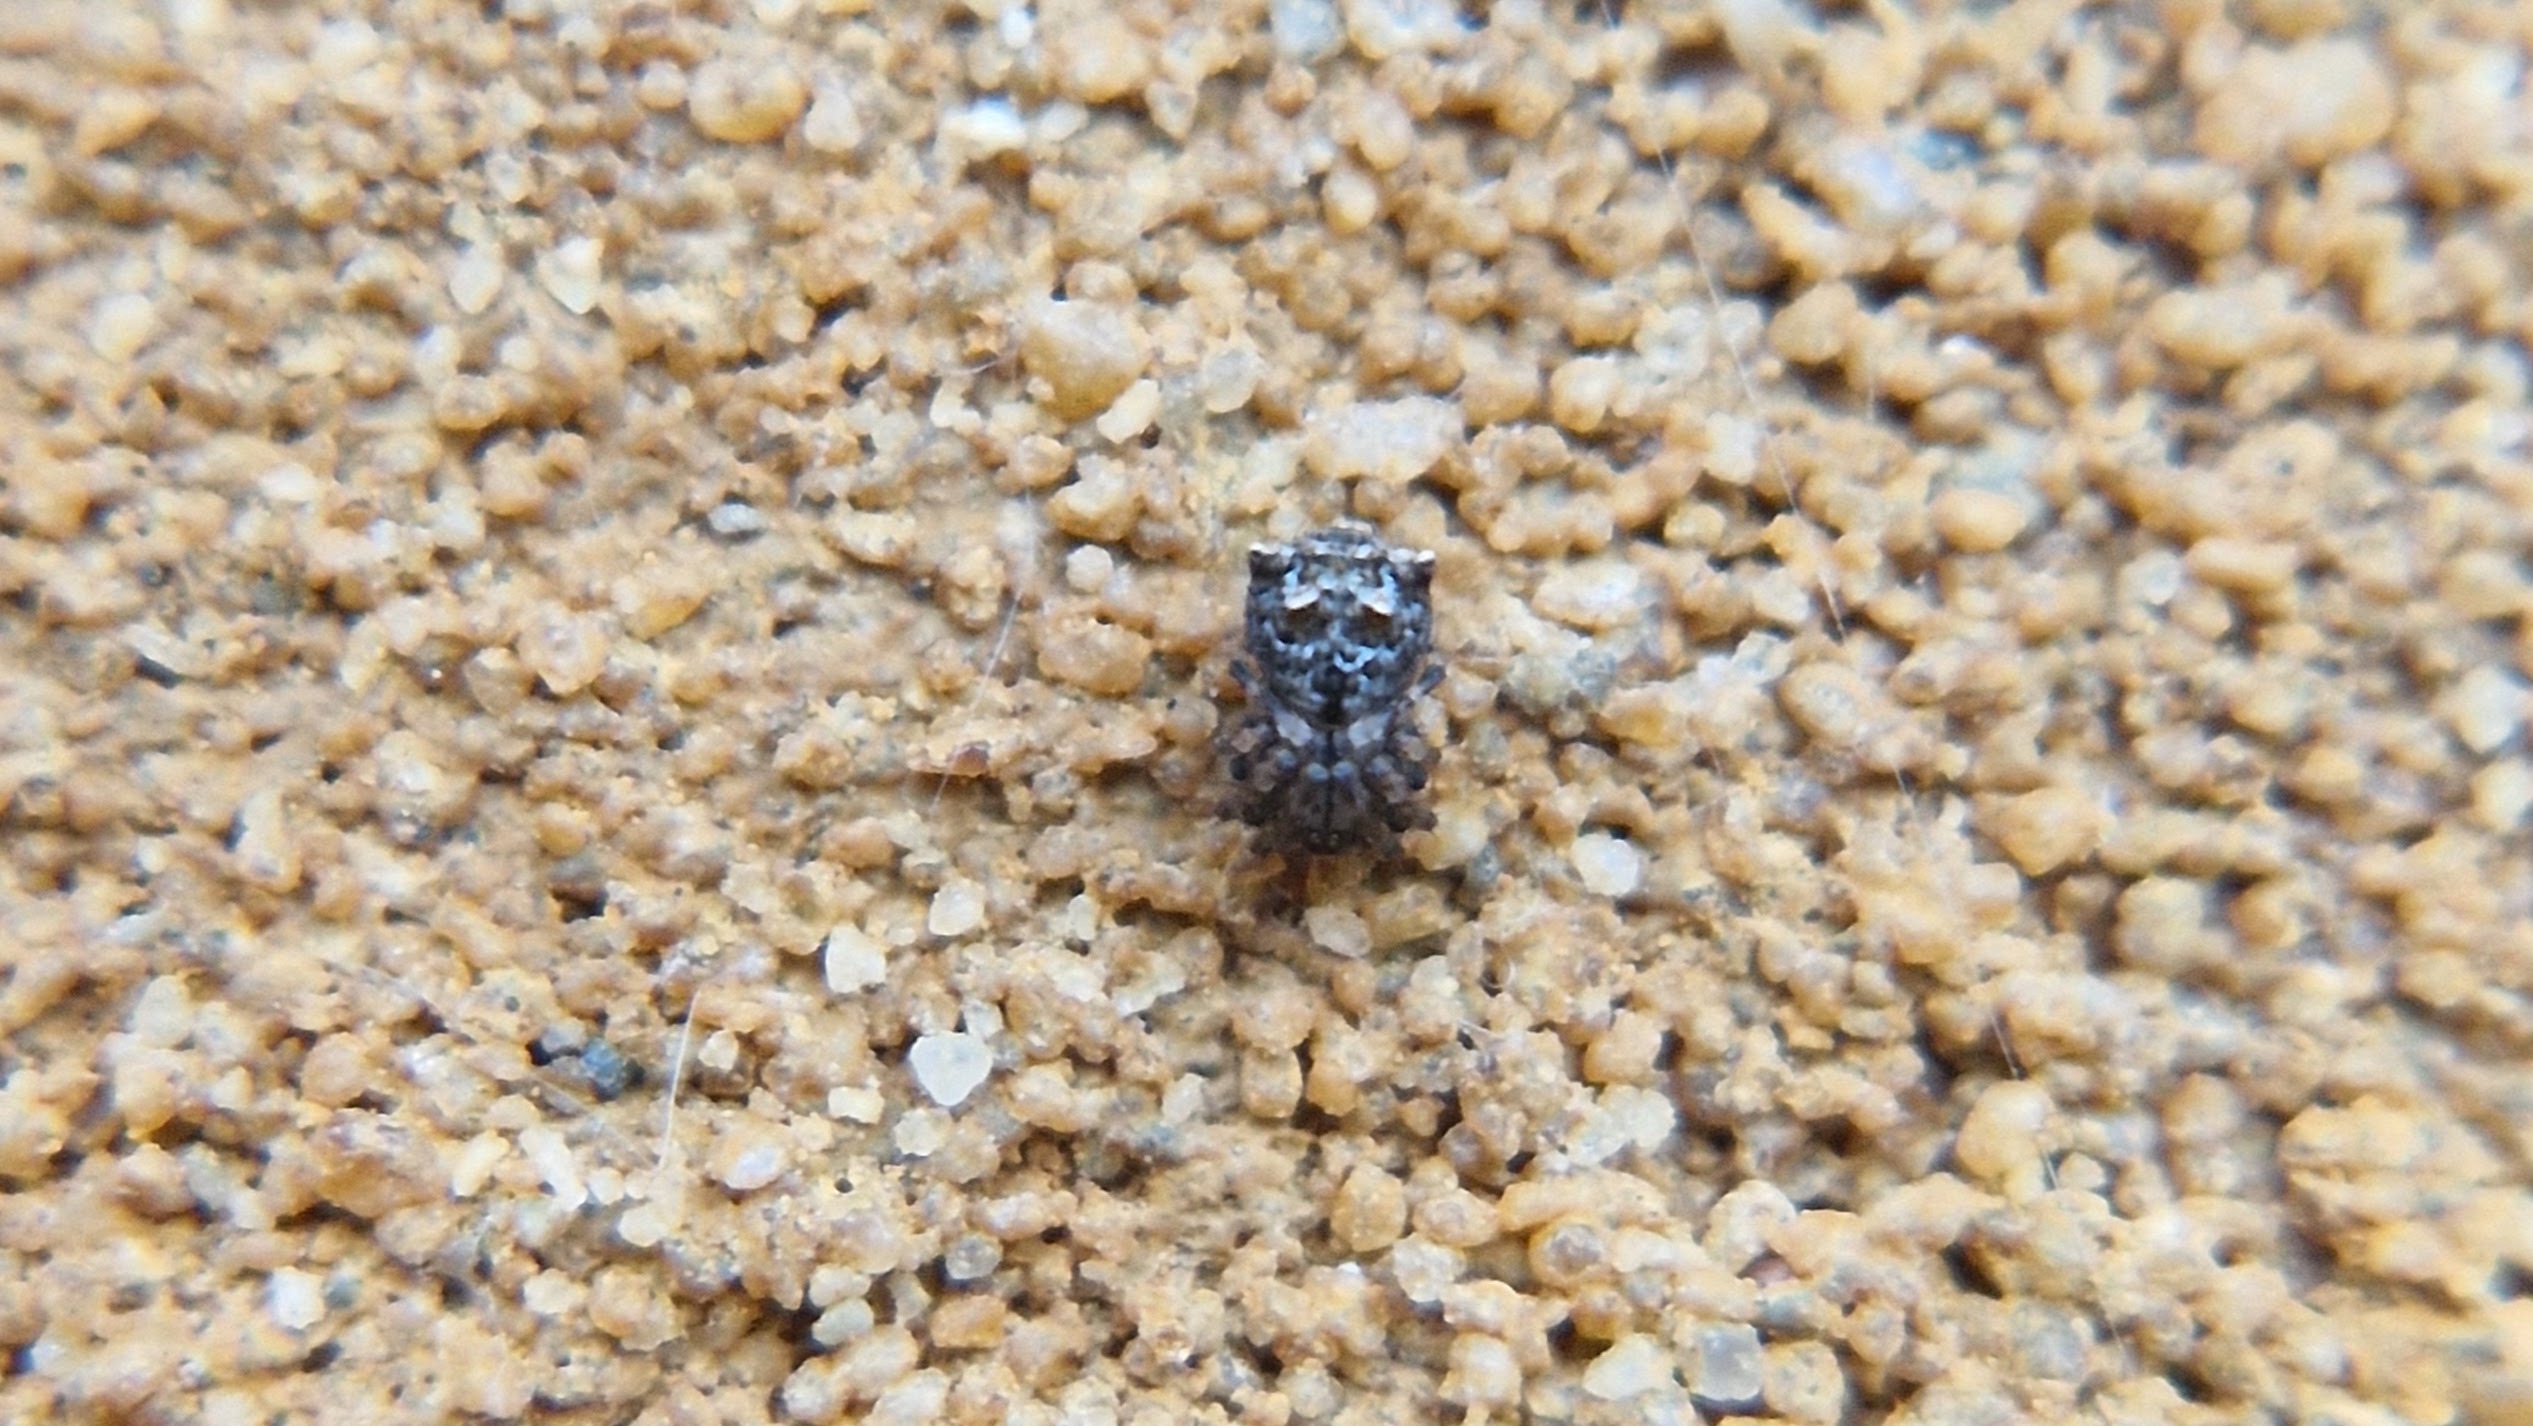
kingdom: Animalia
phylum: Arthropoda
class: Arachnida
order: Araneae
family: Mimetidae
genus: Ero
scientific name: Ero aphana
